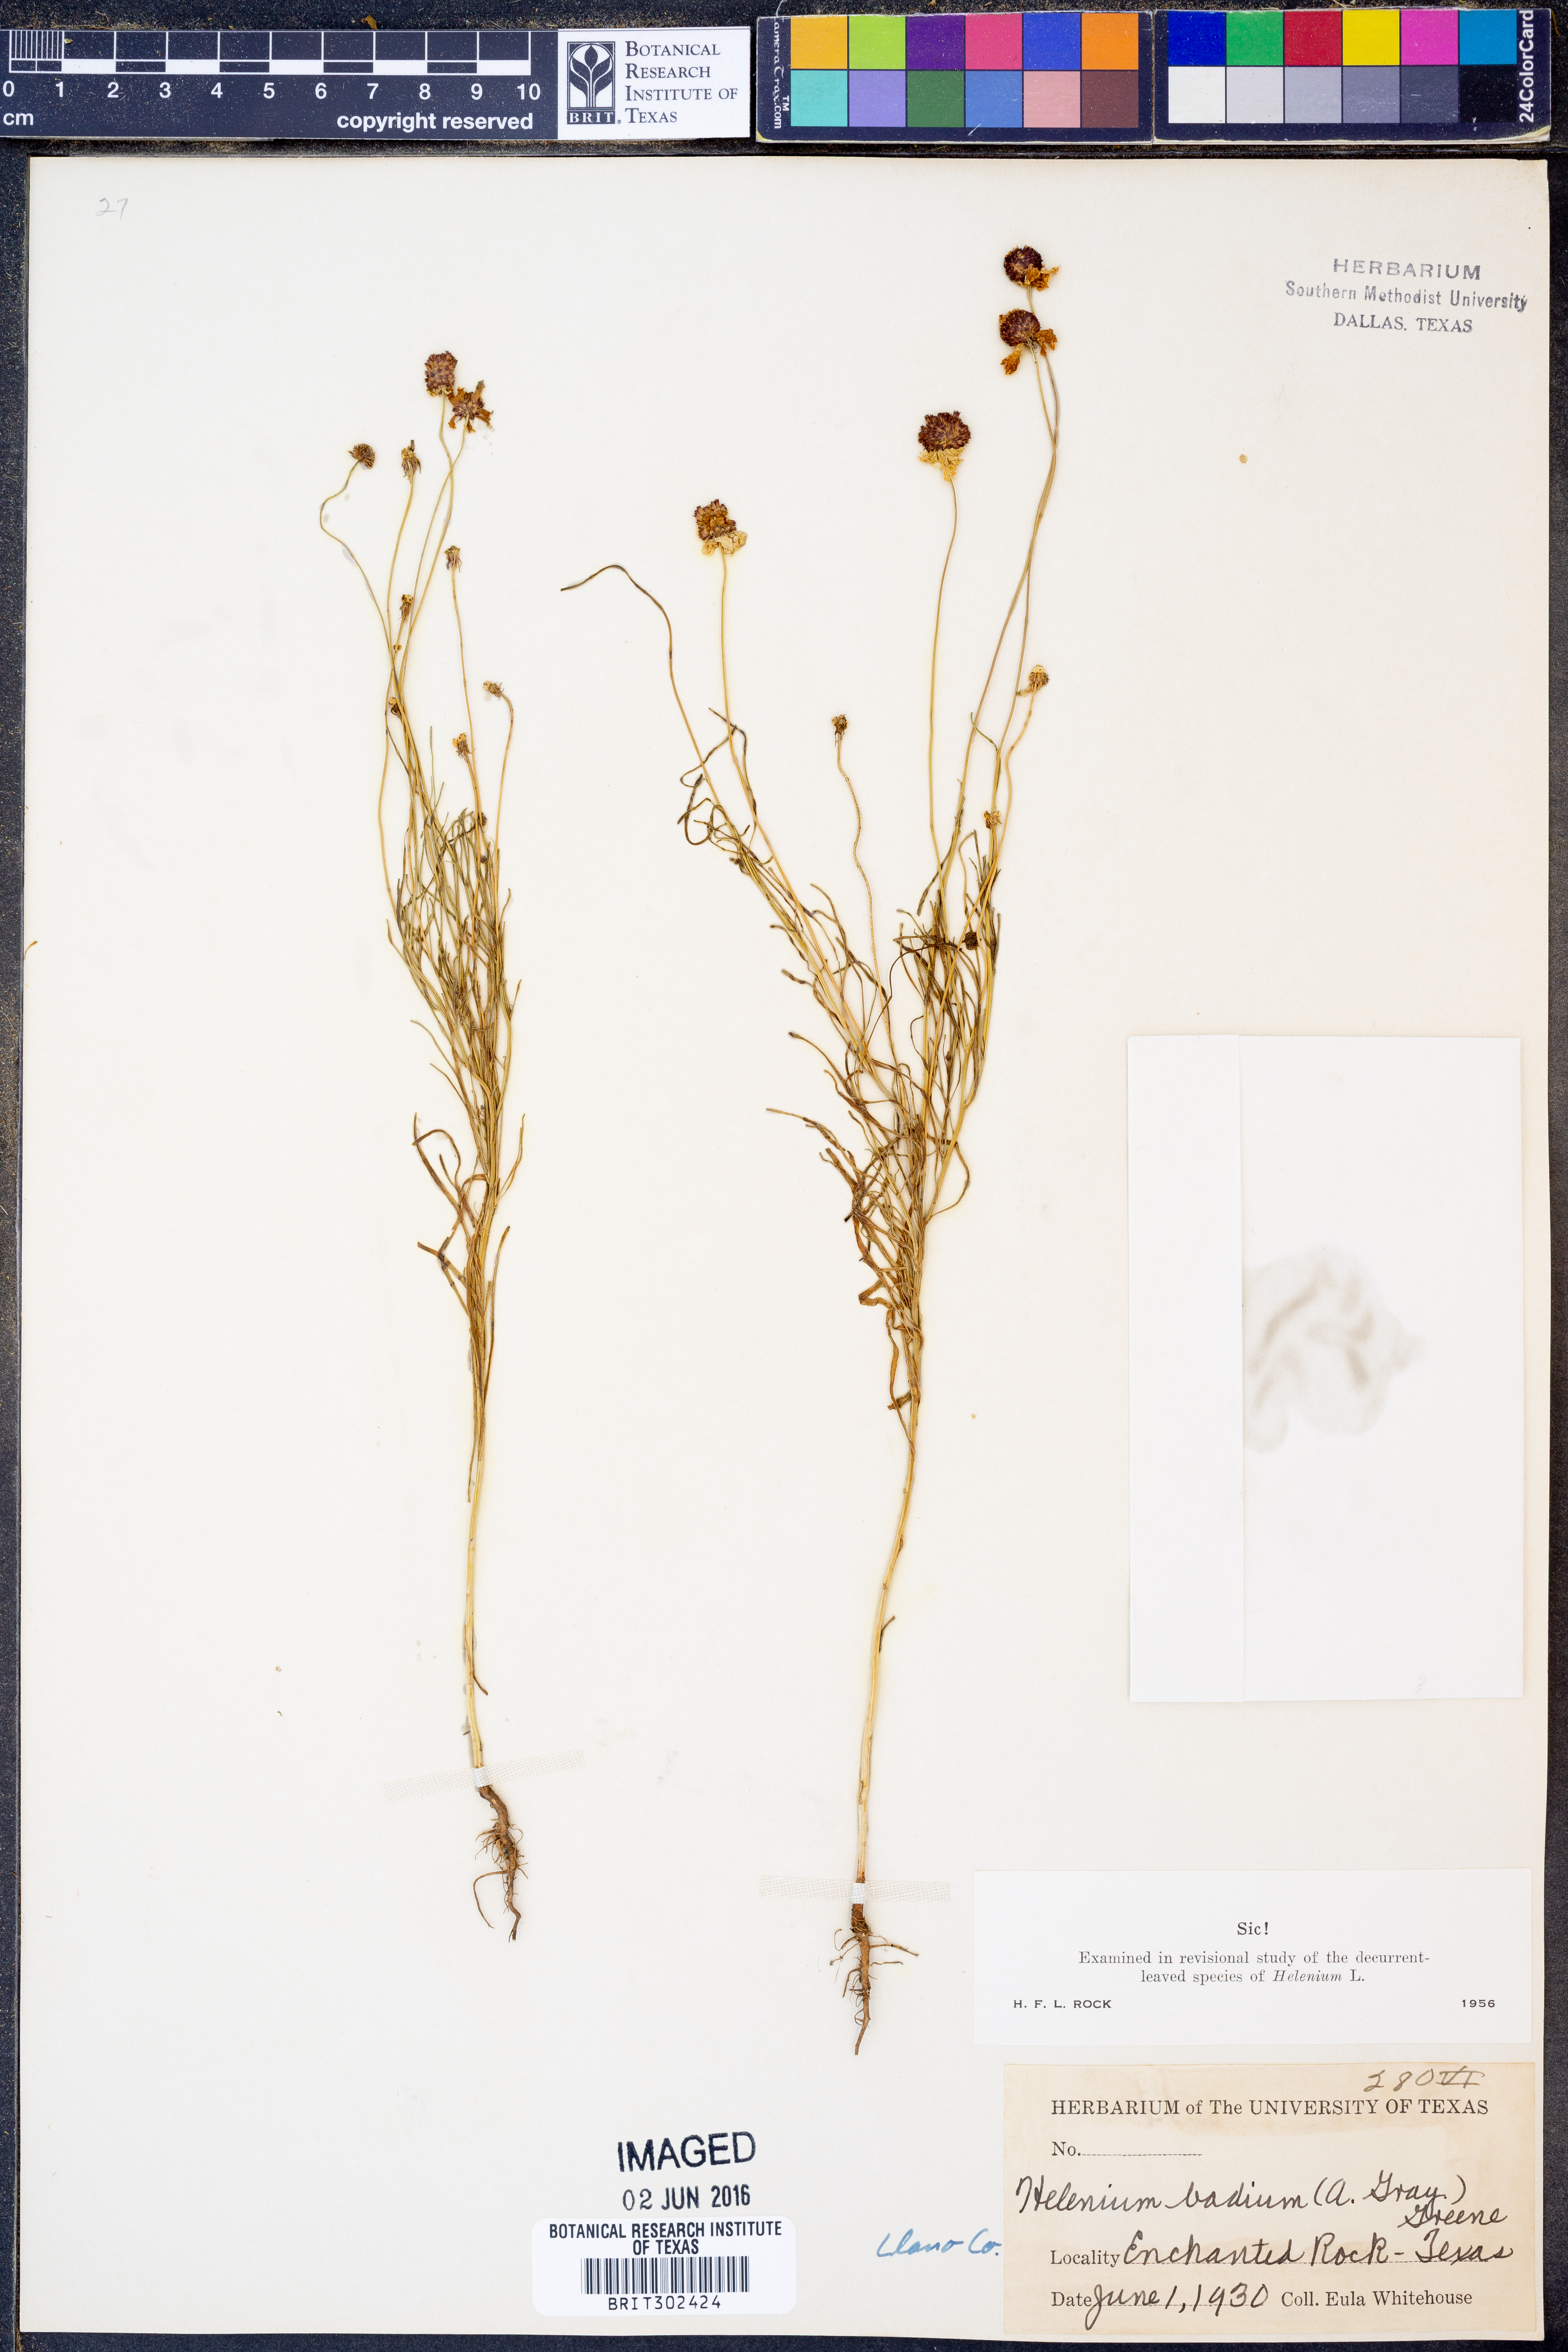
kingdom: Plantae
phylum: Tracheophyta
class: Magnoliopsida
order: Asterales
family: Asteraceae
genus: Helenium
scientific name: Helenium amarum
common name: Bitter sneezeweed
